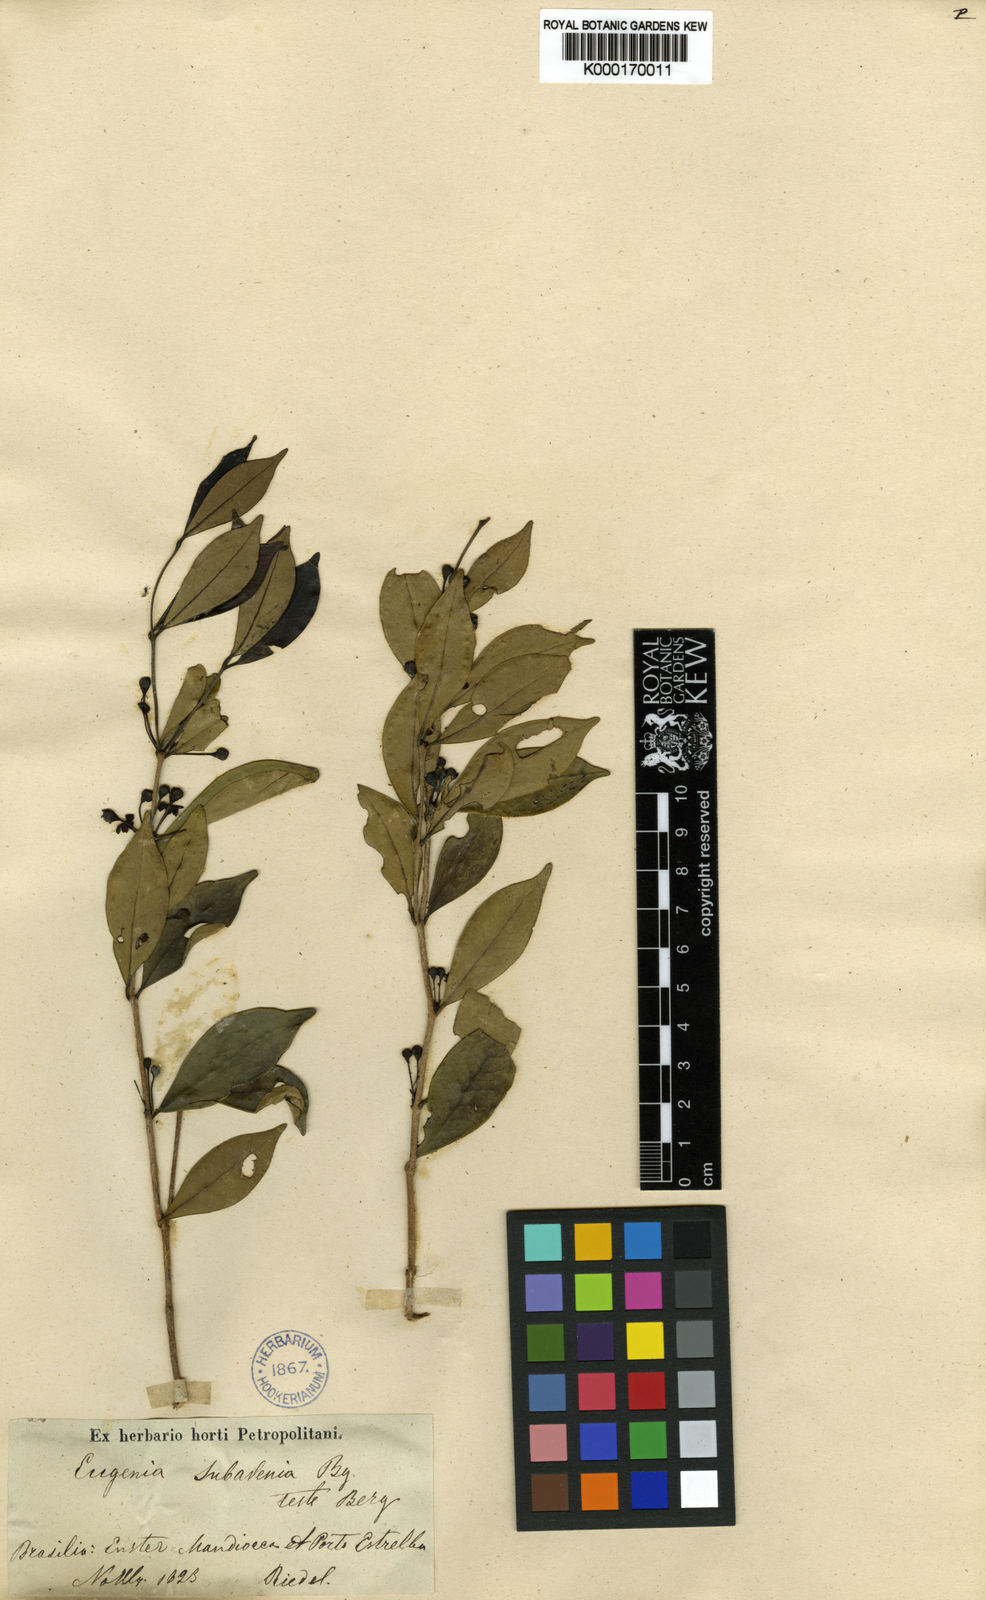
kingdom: Plantae
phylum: Tracheophyta
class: Magnoliopsida
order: Myrtales
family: Myrtaceae
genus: Eugenia
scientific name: Eugenia subavenia
